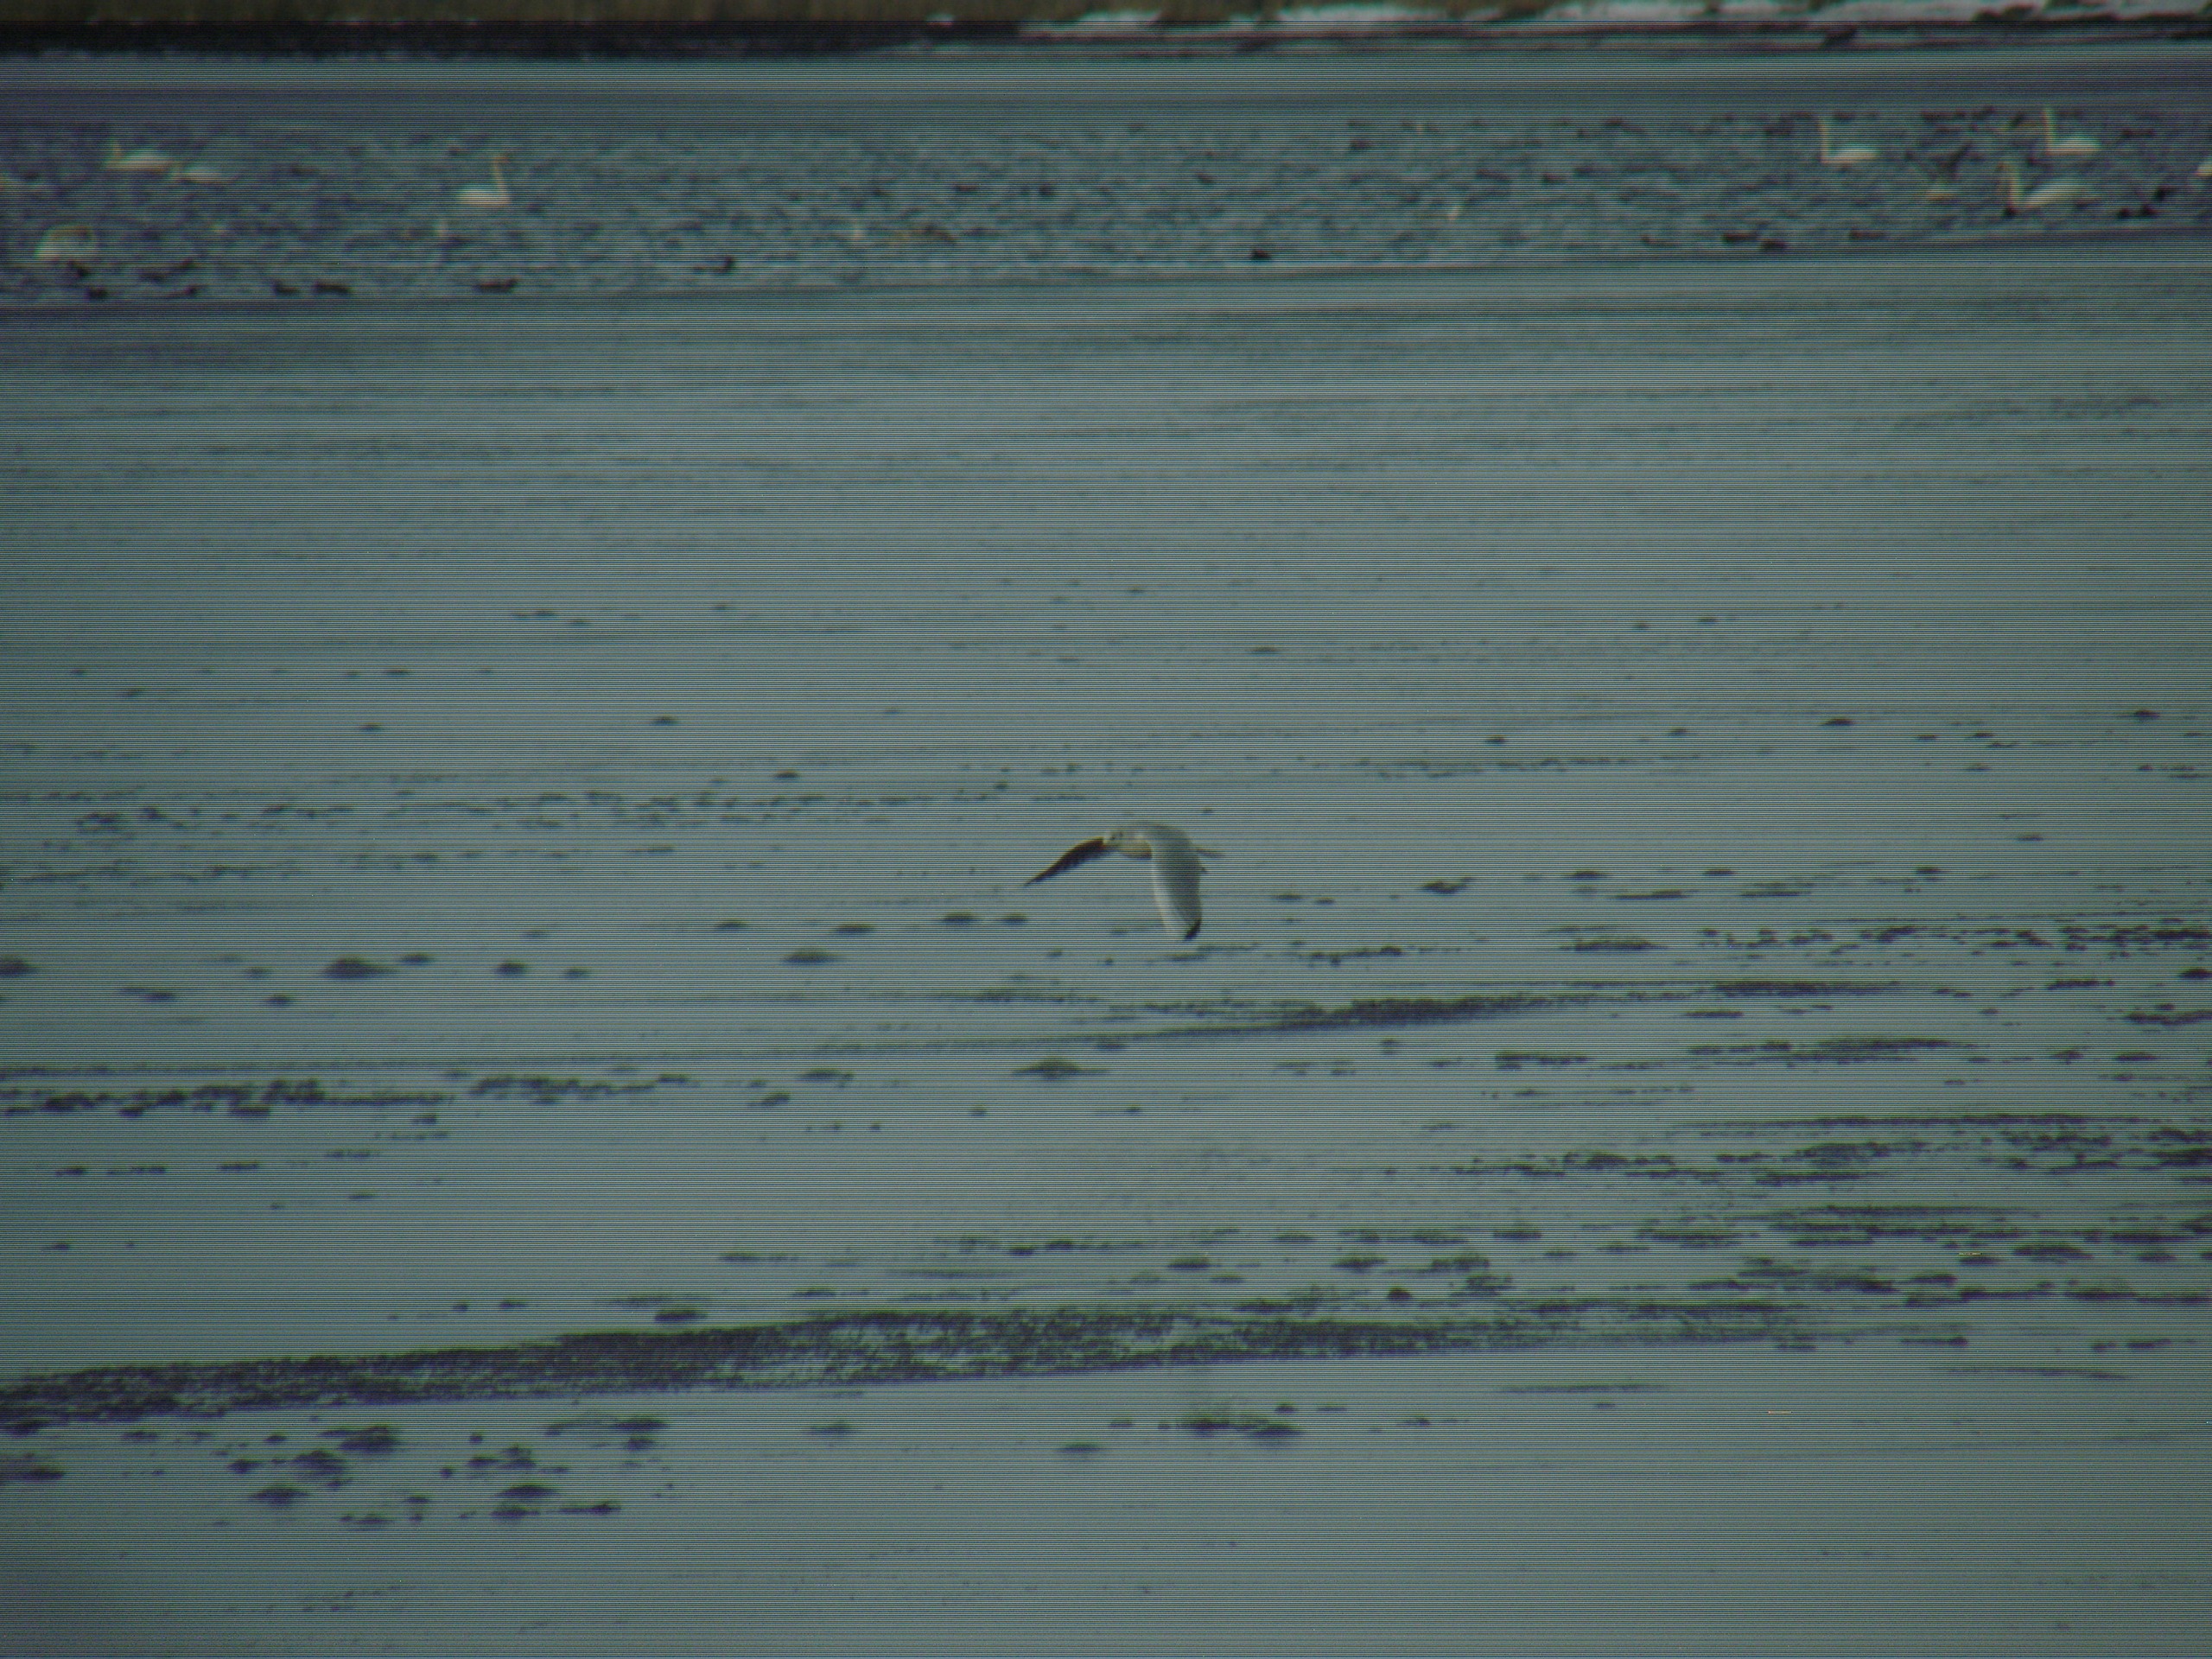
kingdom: Animalia
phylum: Chordata
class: Aves
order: Charadriiformes
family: Laridae
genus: Chroicocephalus
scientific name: Chroicocephalus ridibundus
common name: Hættemåge
